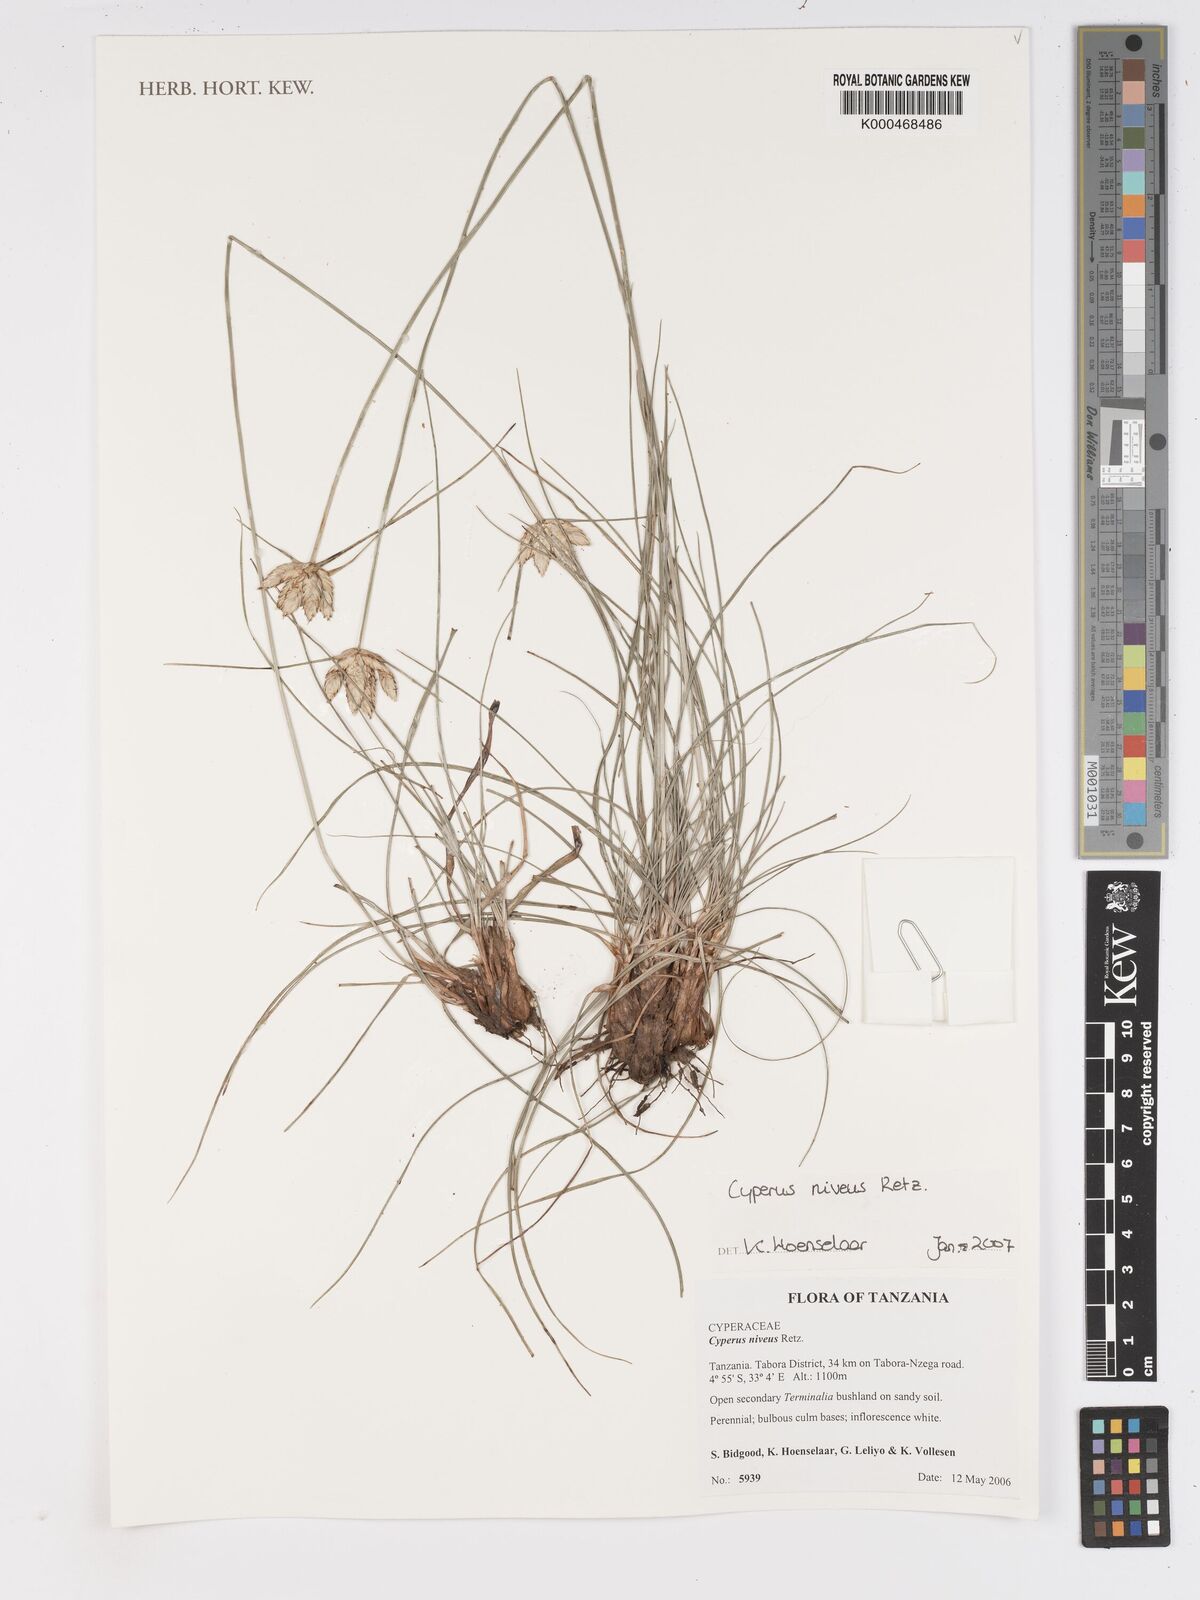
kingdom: Plantae
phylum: Tracheophyta
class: Liliopsida
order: Poales
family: Cyperaceae
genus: Cyperus
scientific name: Cyperus niveus
